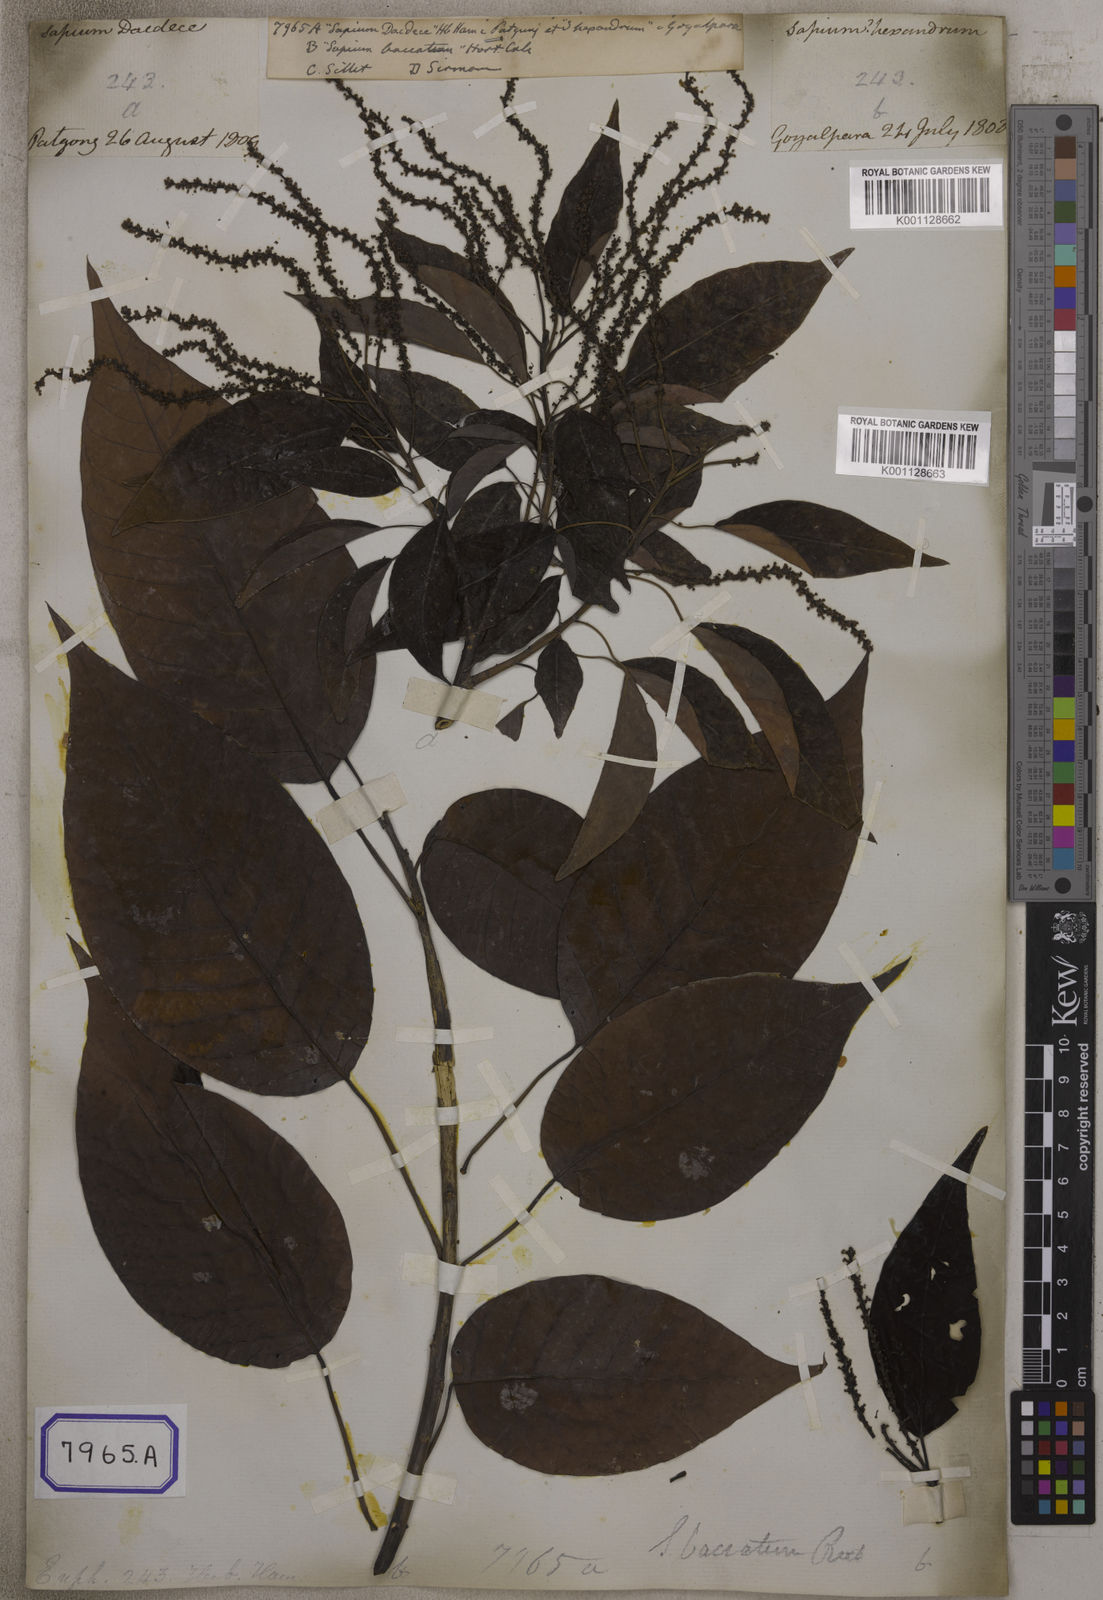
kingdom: Plantae
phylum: Tracheophyta
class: Magnoliopsida
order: Malpighiales
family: Euphorbiaceae
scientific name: Euphorbiaceae
